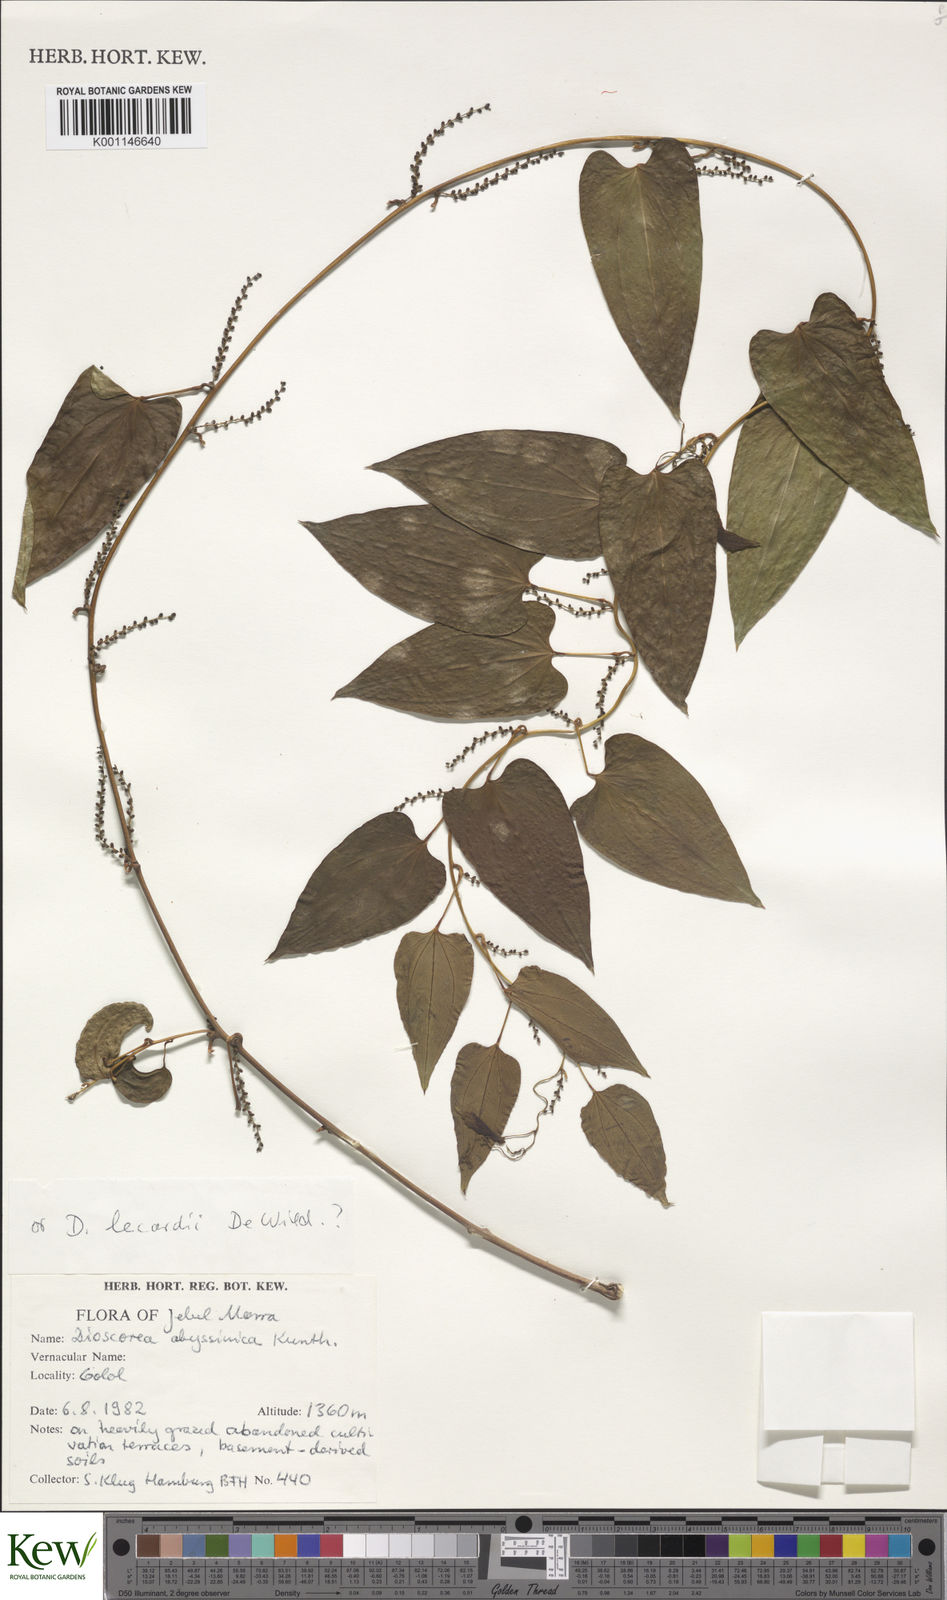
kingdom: Plantae
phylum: Tracheophyta
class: Liliopsida
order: Dioscoreales
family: Dioscoreaceae
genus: Dioscorea
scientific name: Dioscorea sagittifolia
